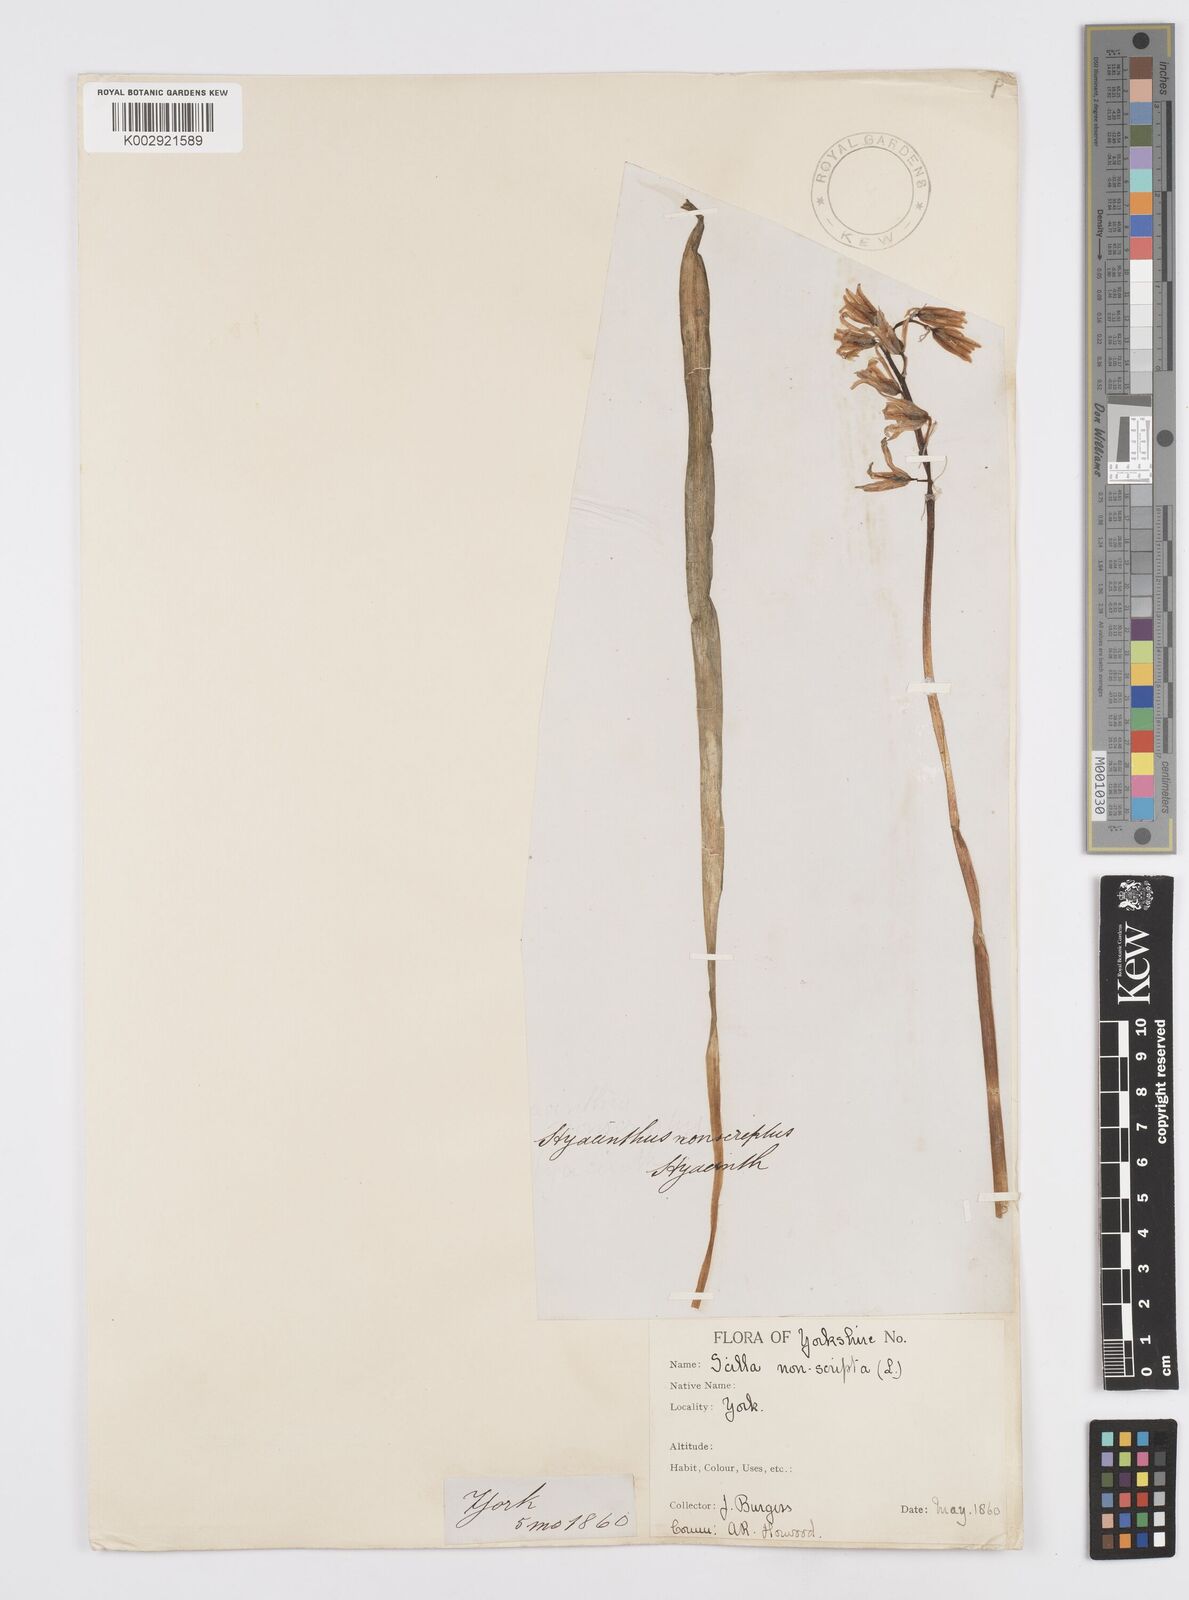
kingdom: Plantae
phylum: Tracheophyta
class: Liliopsida
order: Asparagales
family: Asparagaceae
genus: Hyacinthoides
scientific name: Hyacinthoides non-scripta
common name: Bluebell
